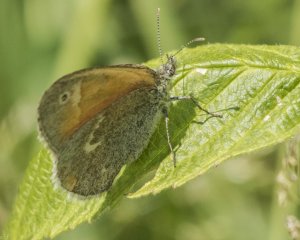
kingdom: Animalia
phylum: Arthropoda
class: Insecta
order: Lepidoptera
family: Nymphalidae
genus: Coenonympha
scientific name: Coenonympha tullia
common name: Large Heath
